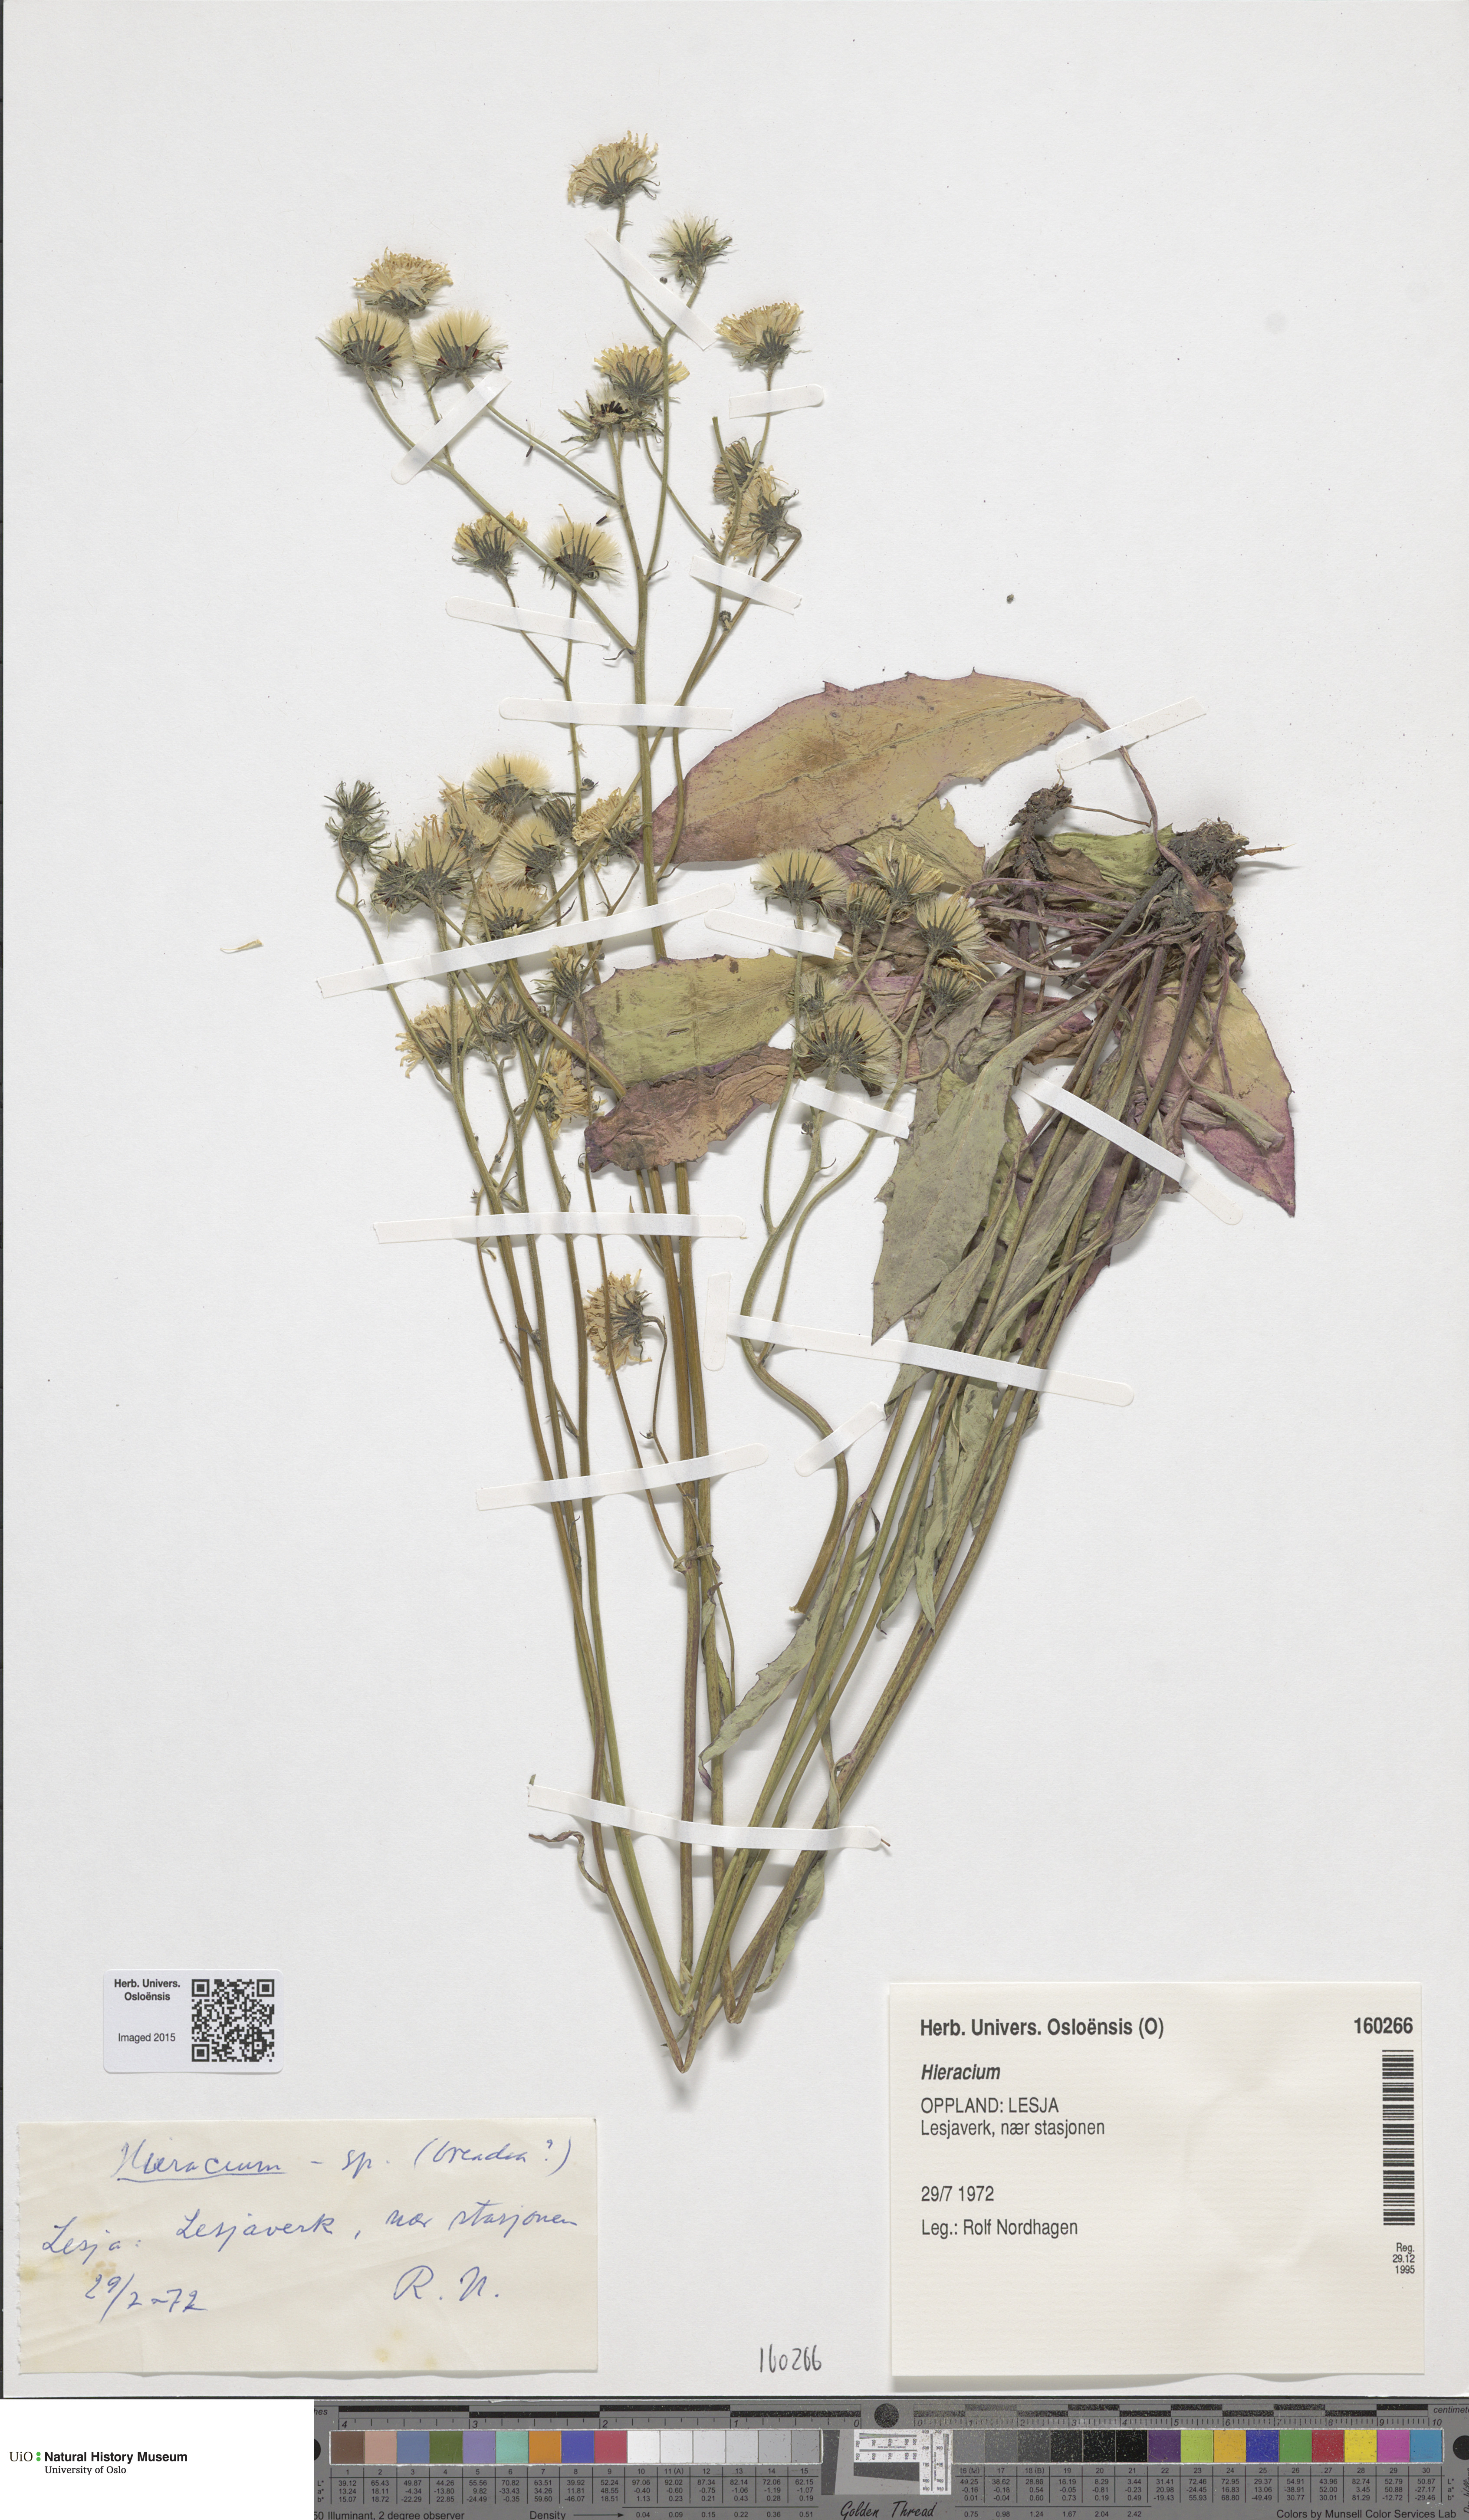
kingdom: Plantae
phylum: Tracheophyta
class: Magnoliopsida
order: Asterales
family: Asteraceae
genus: Hieracium
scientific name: Hieracium
